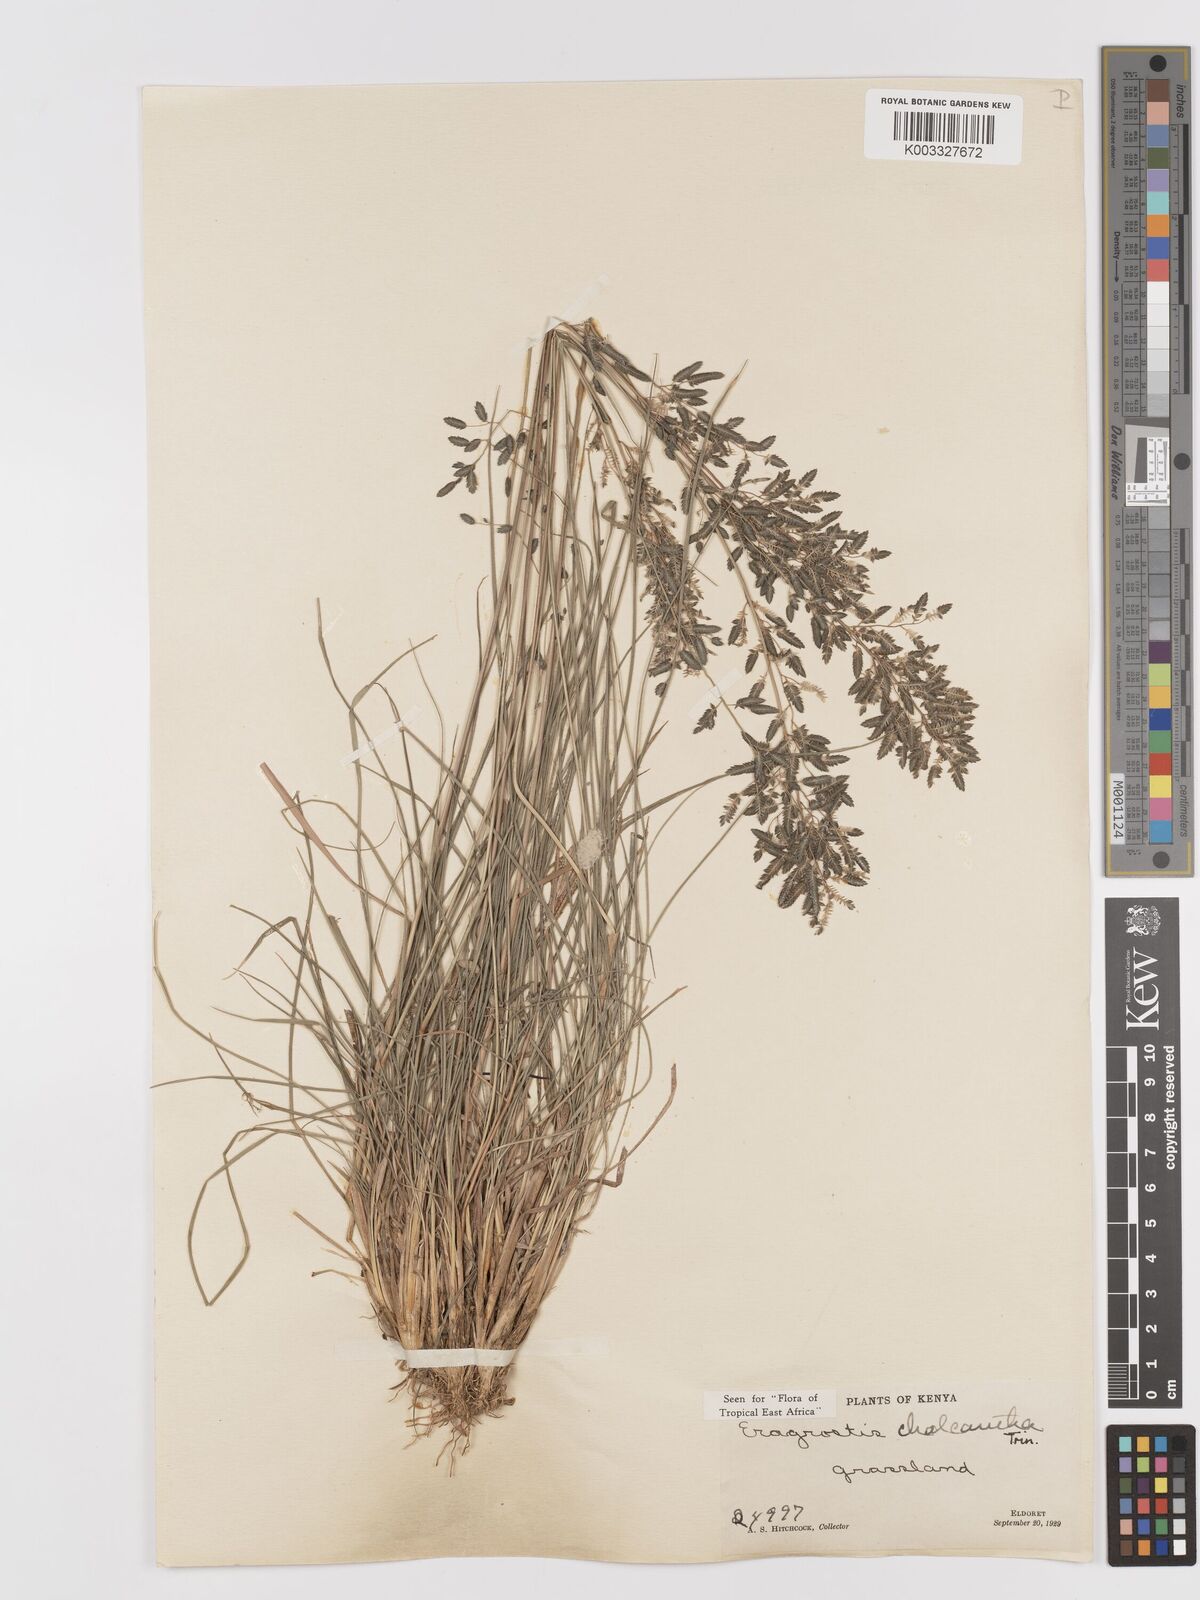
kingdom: Plantae
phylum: Tracheophyta
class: Liliopsida
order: Poales
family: Poaceae
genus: Eragrostis
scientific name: Eragrostis racemosa
